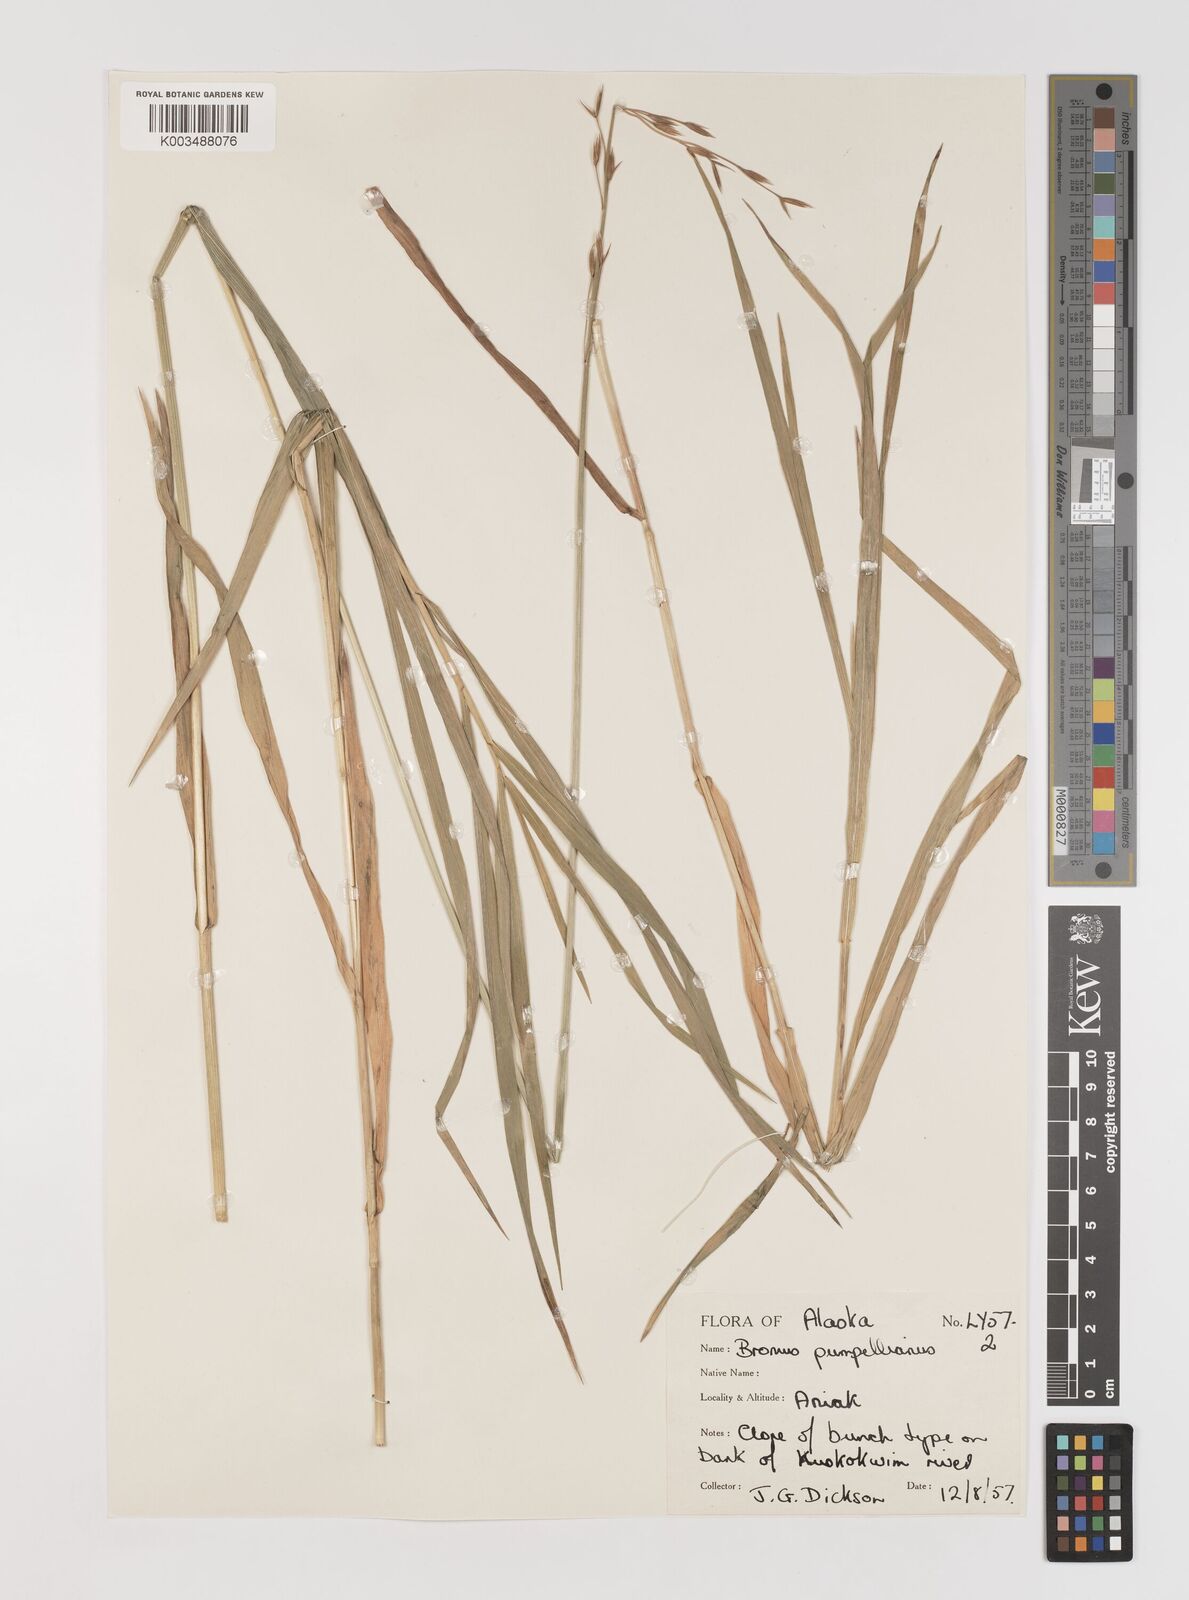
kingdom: Plantae
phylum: Tracheophyta
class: Liliopsida
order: Poales
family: Poaceae
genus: Bromus
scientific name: Bromus pumpellianus
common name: Pumpelly's brome
